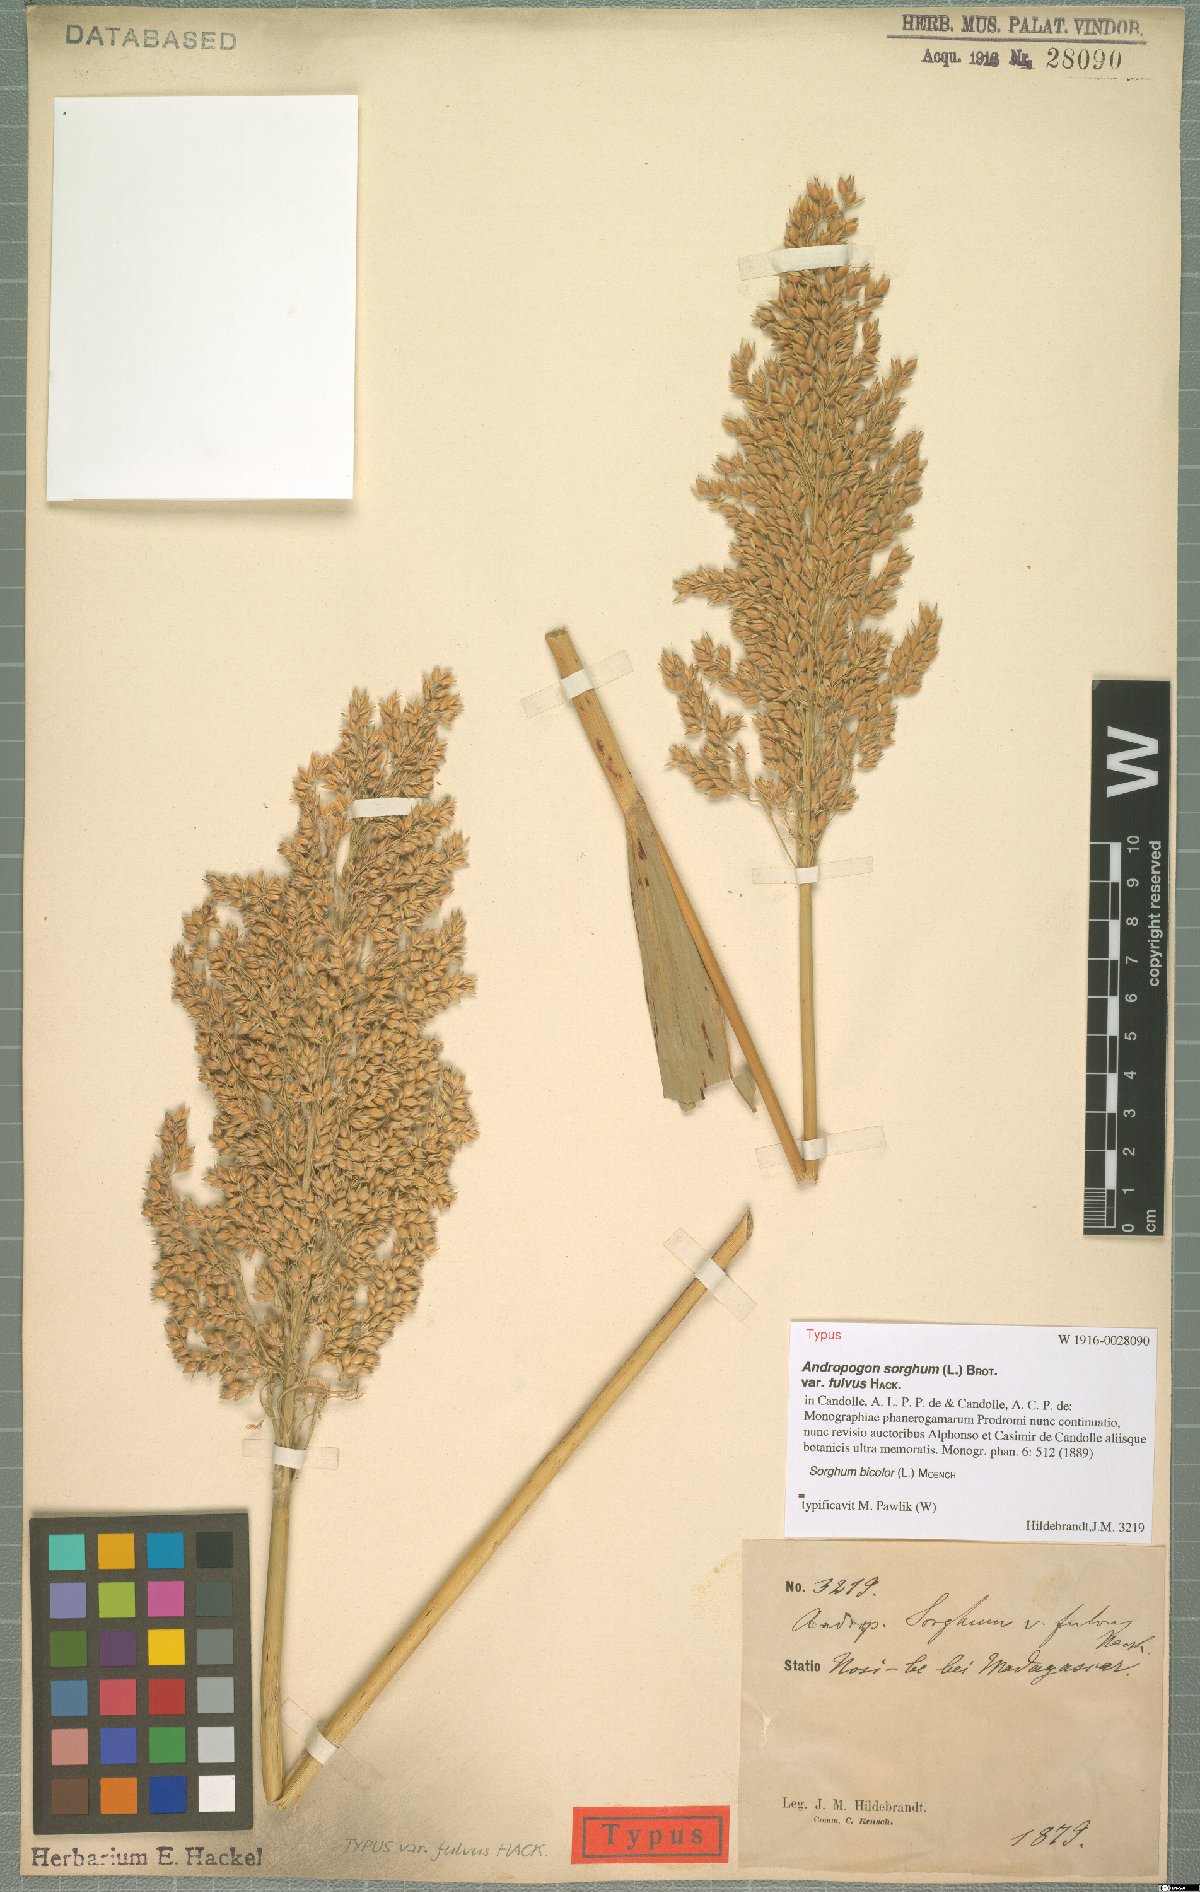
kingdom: Plantae
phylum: Tracheophyta
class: Liliopsida
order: Poales
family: Poaceae
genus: Sorghum
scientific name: Sorghum bicolor
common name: Sorghum
